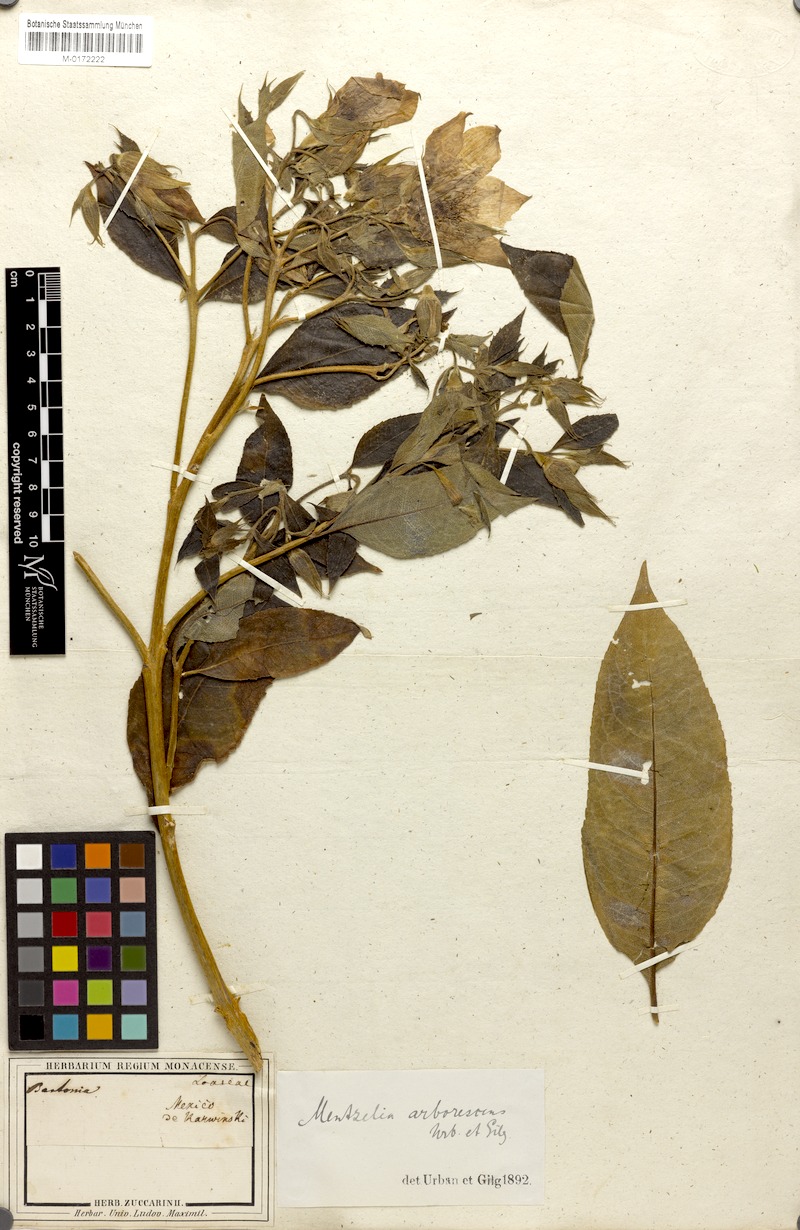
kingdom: Plantae
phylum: Tracheophyta
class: Magnoliopsida
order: Cornales
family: Loasaceae
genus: Mentzelia
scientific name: Mentzelia arborescens
